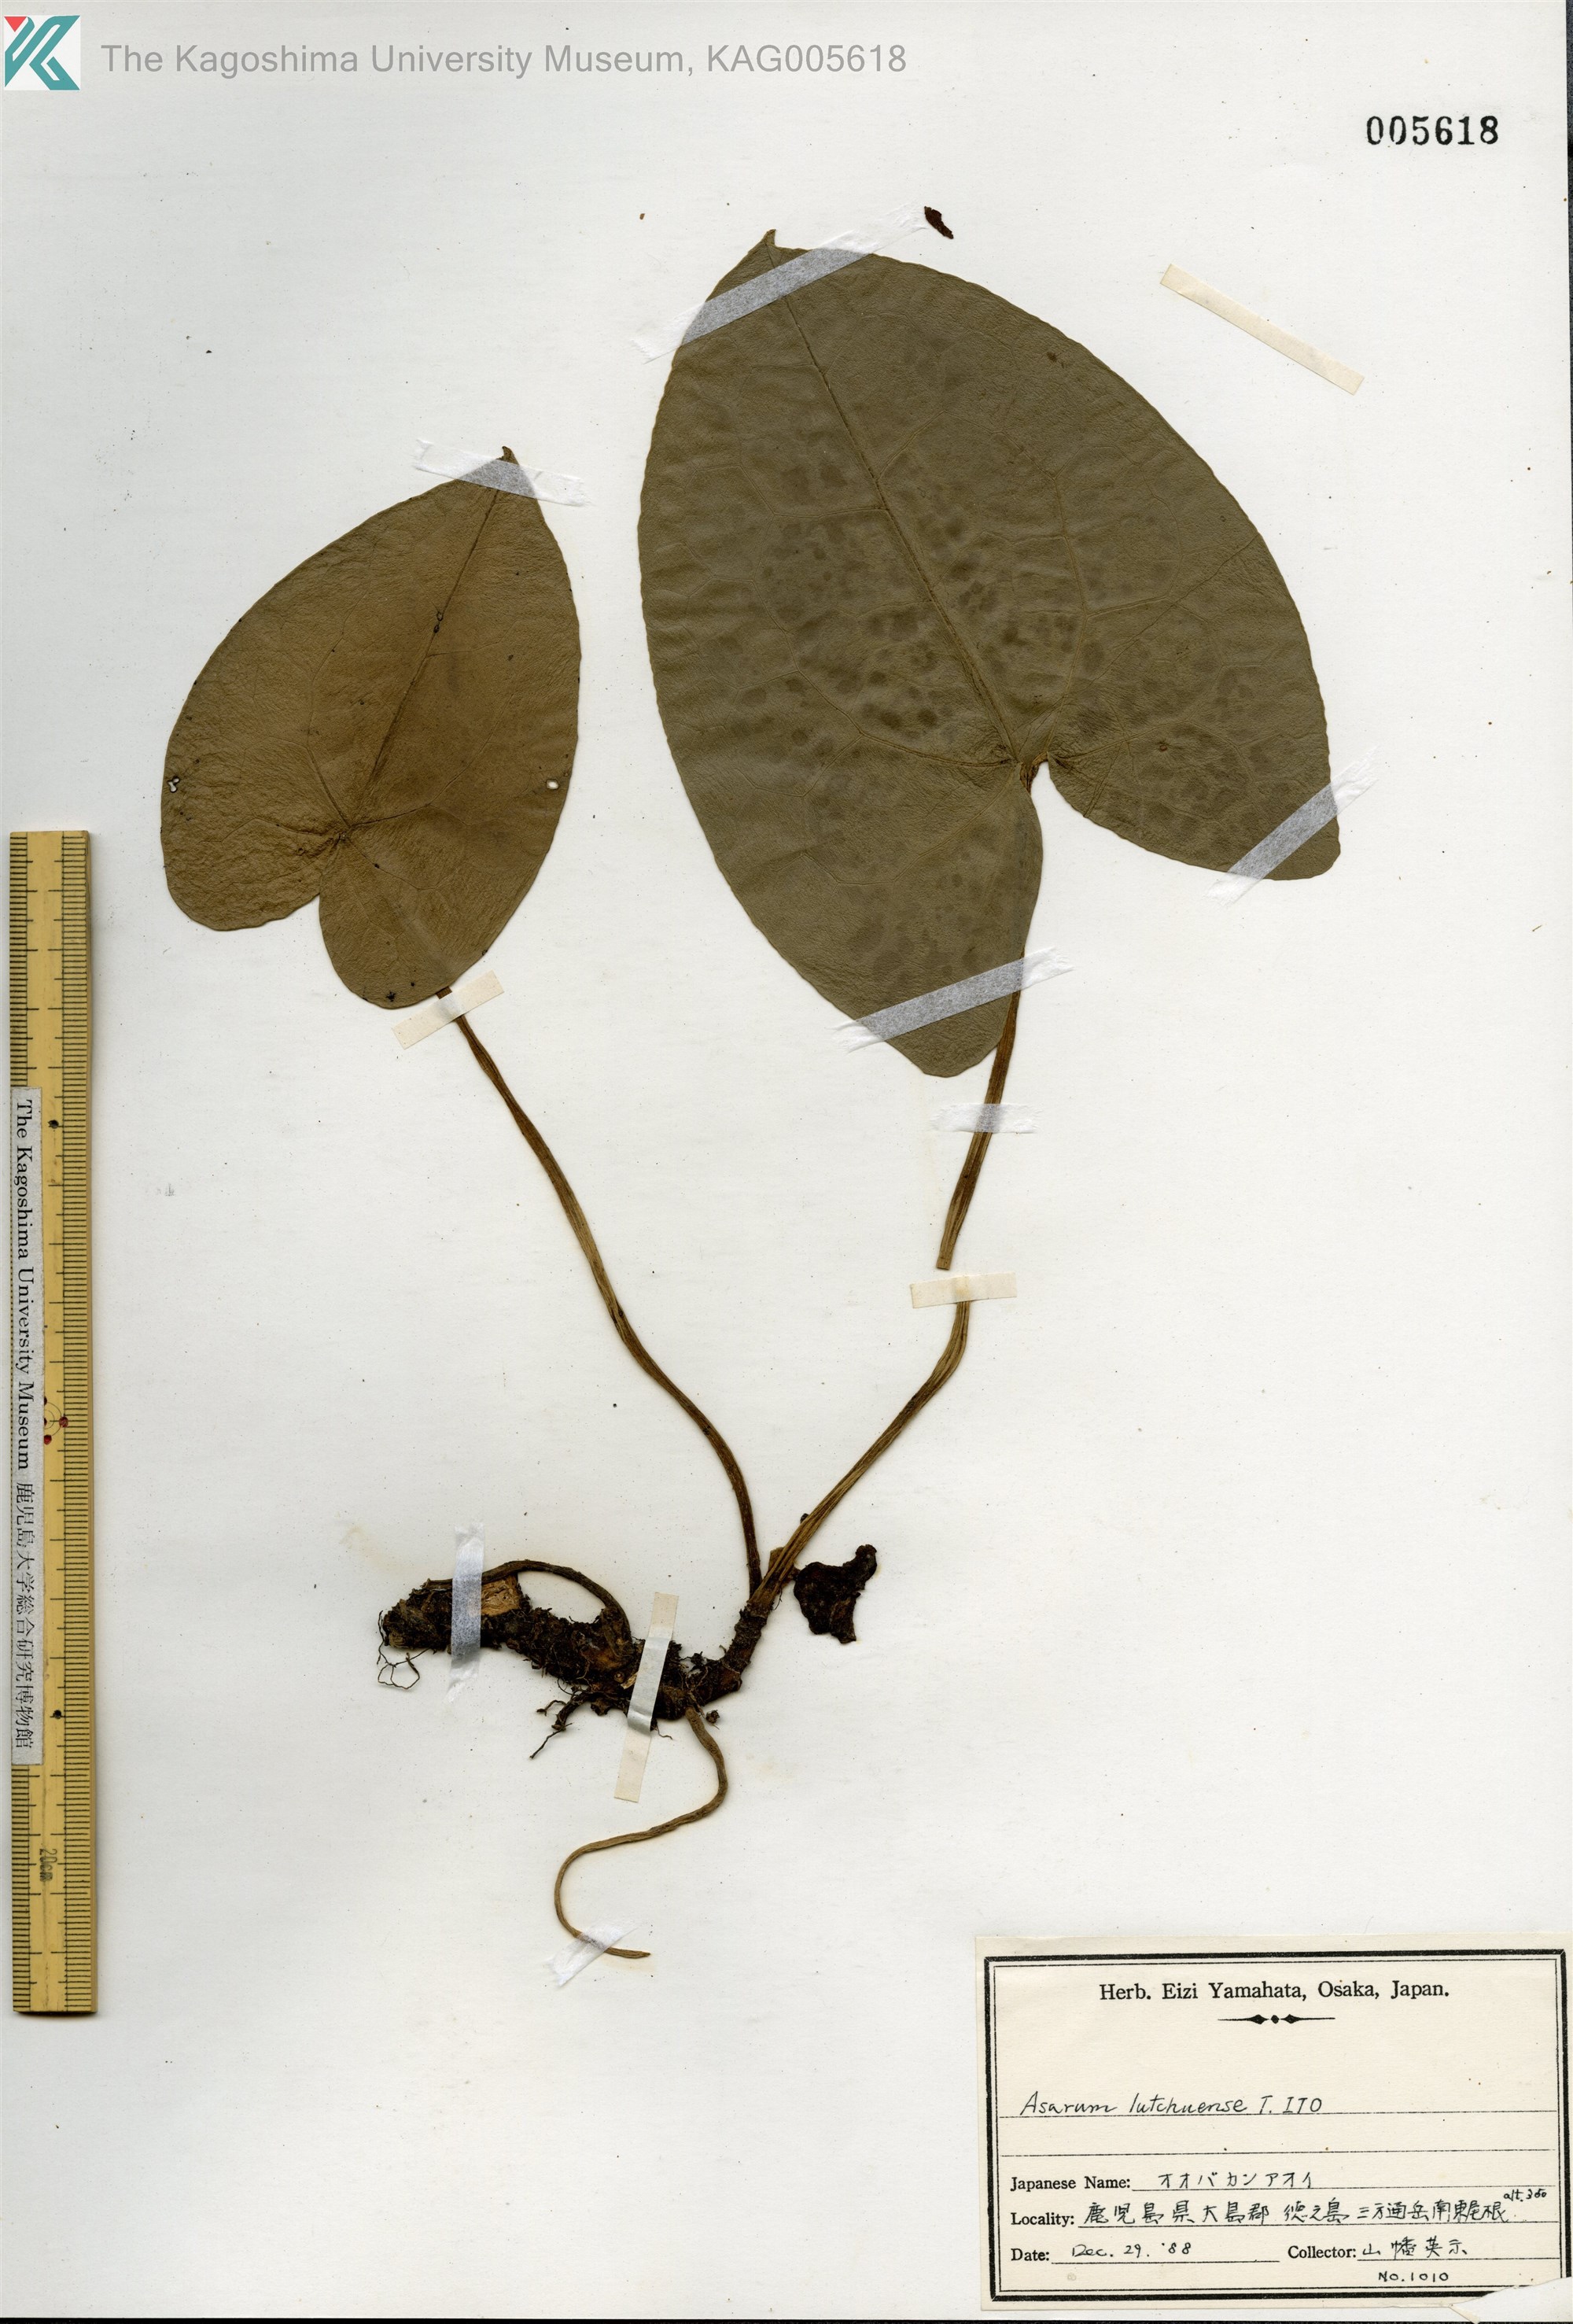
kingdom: Plantae
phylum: Tracheophyta
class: Magnoliopsida
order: Piperales
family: Aristolochiaceae
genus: Asarum
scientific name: Asarum lutchuense
